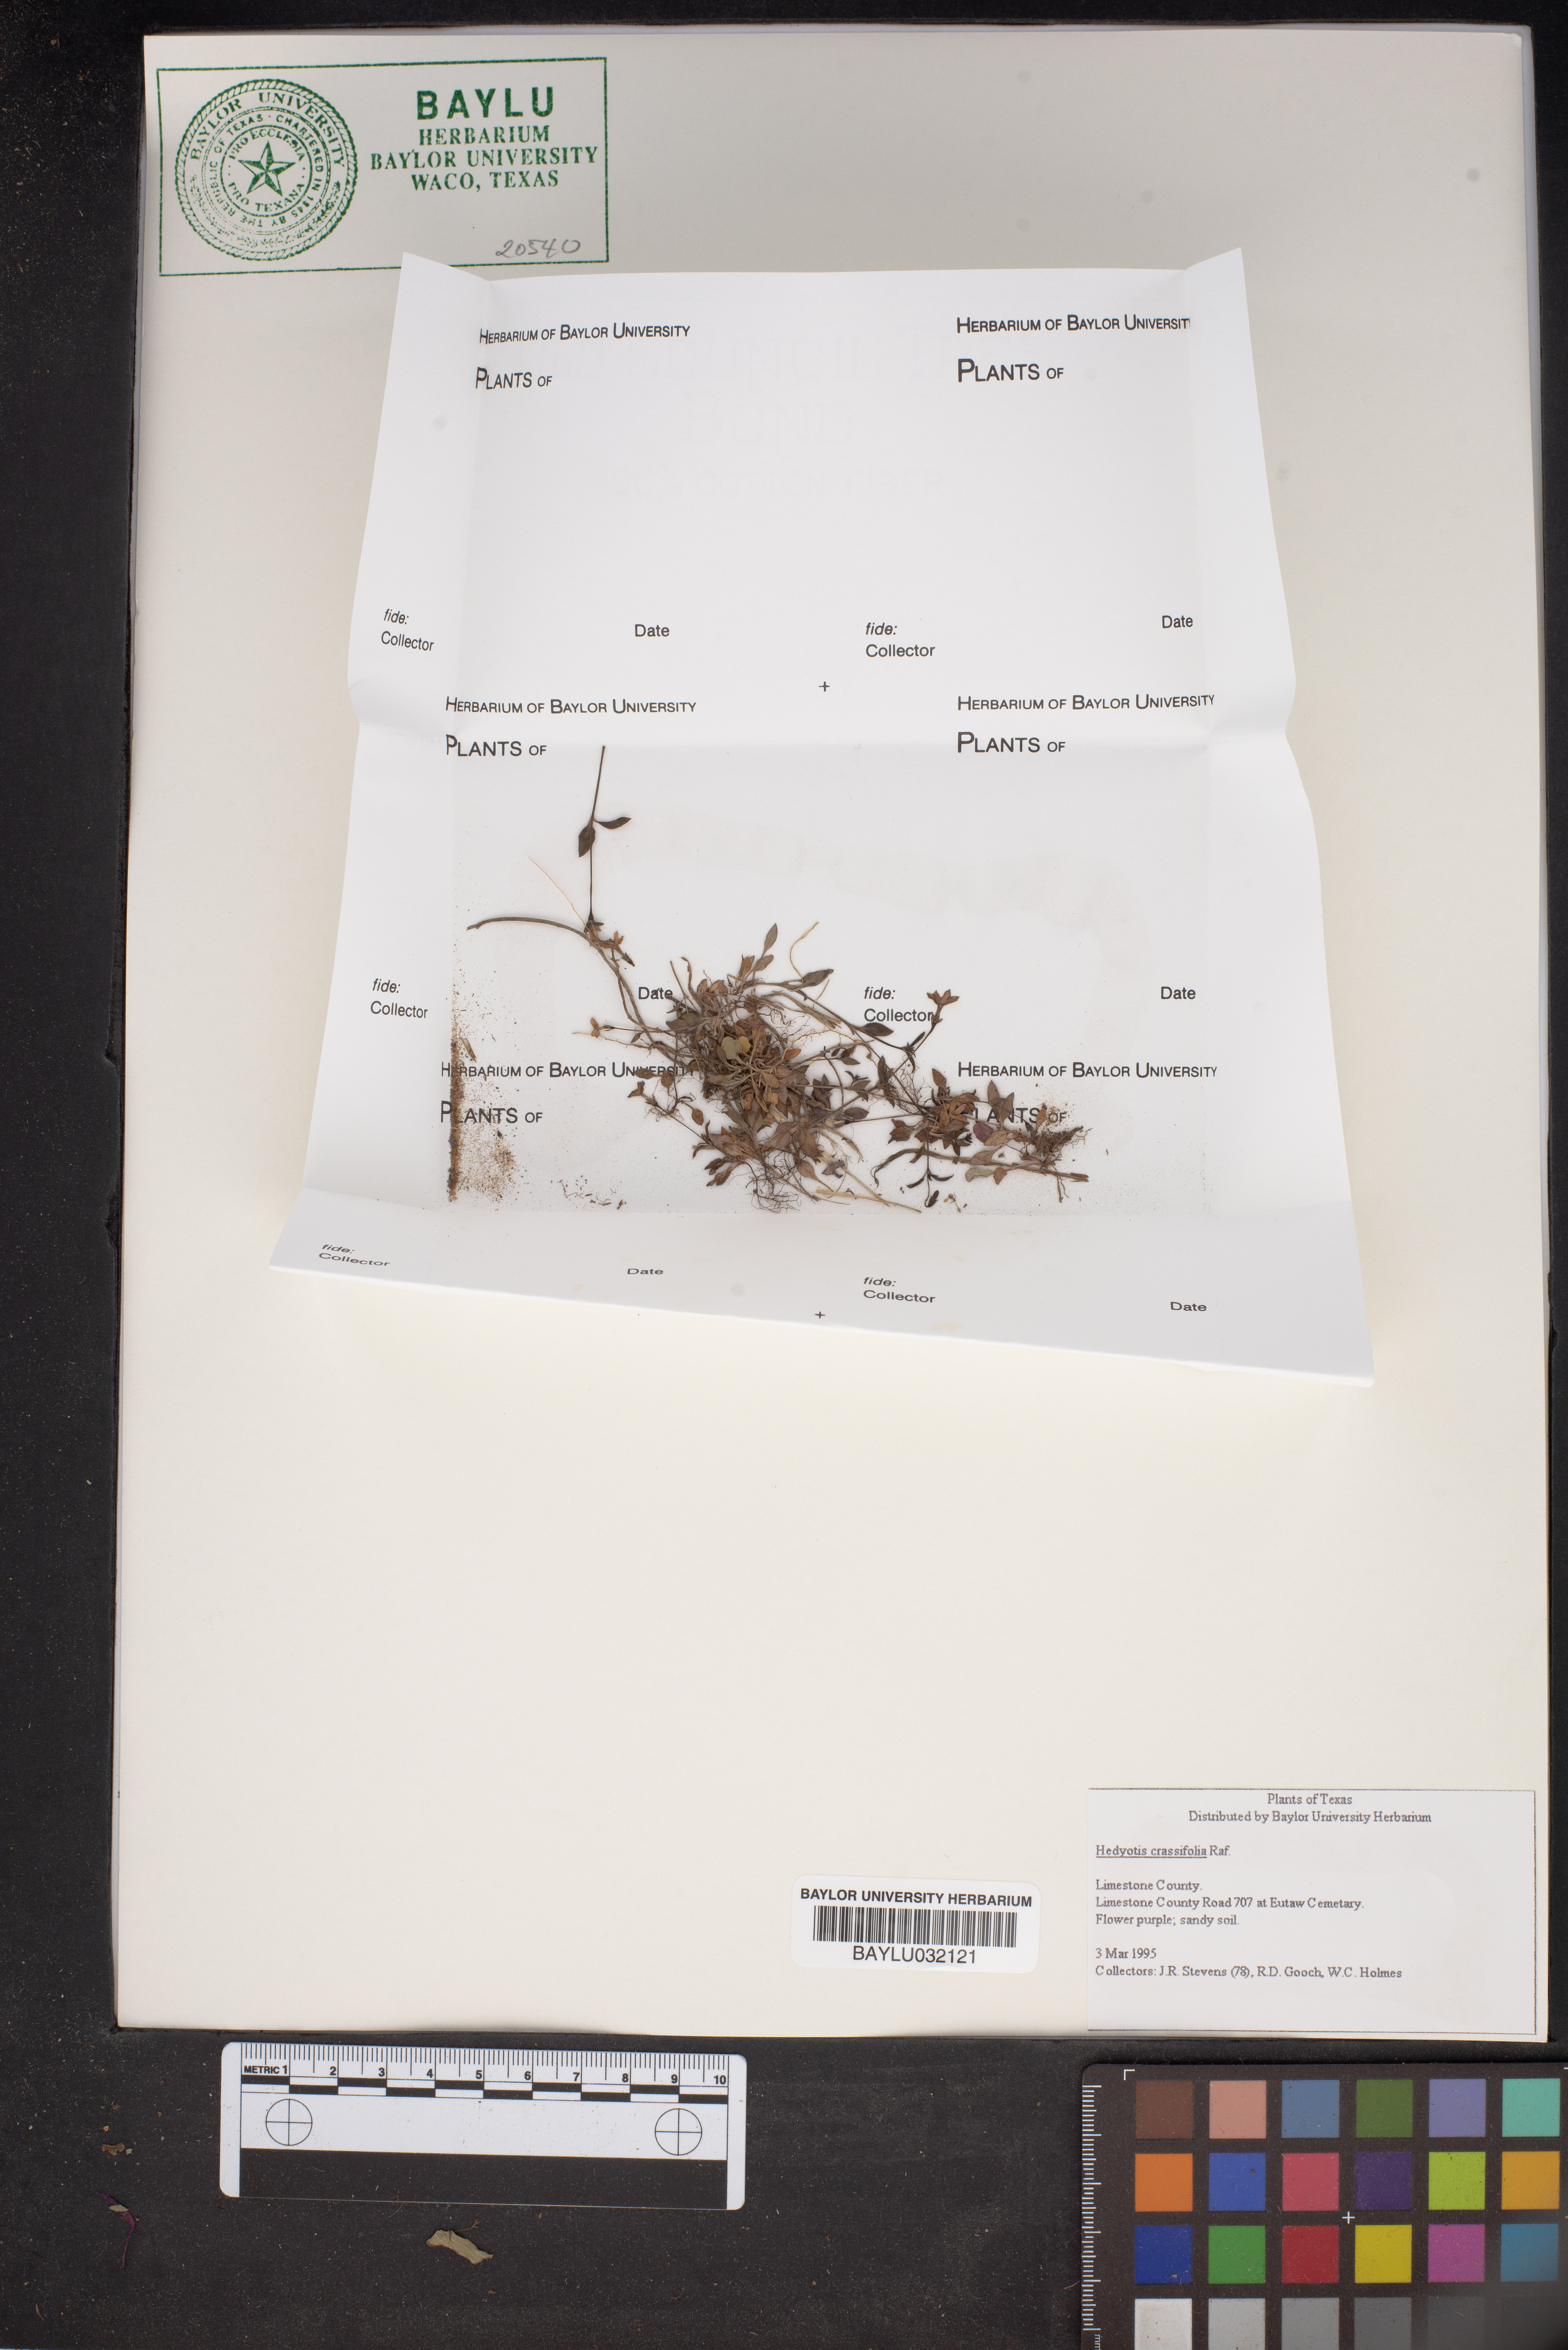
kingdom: Plantae
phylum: Tracheophyta
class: Magnoliopsida
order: Gentianales
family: Rubiaceae
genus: Houstonia
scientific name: Houstonia pusilla
